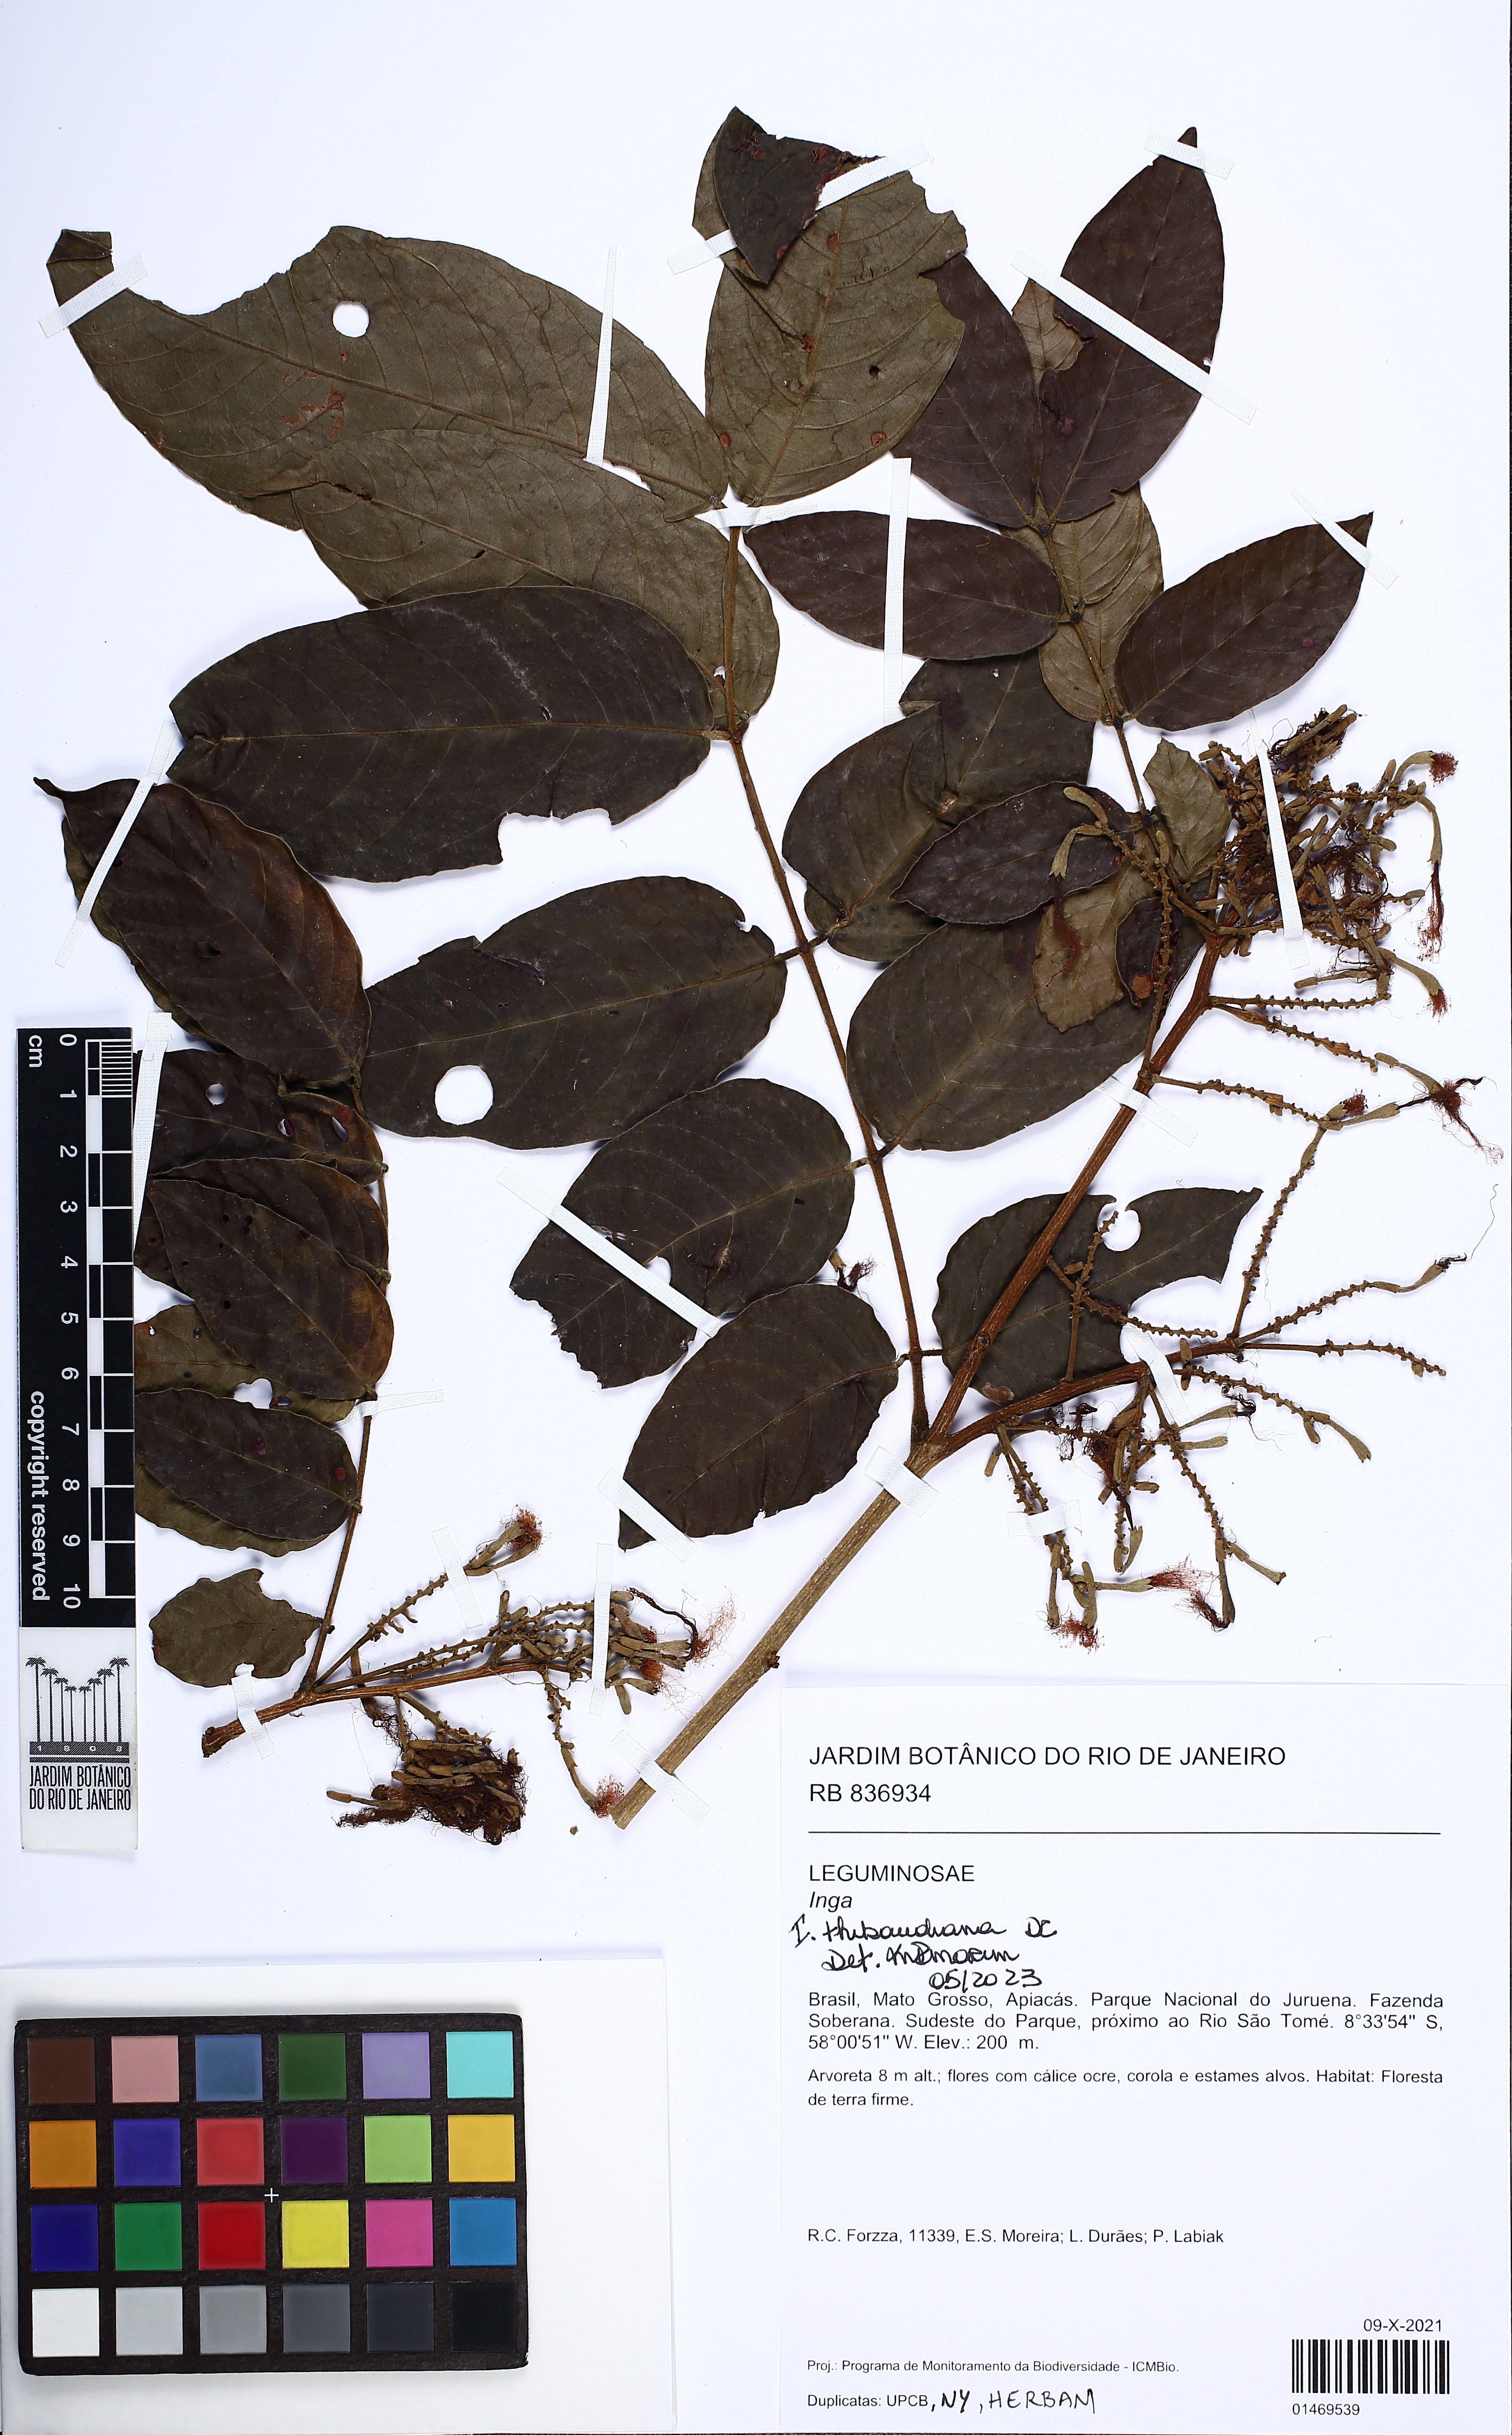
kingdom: Plantae
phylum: Tracheophyta
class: Magnoliopsida
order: Fabales
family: Fabaceae
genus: Inga
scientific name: Inga thibaudiana
